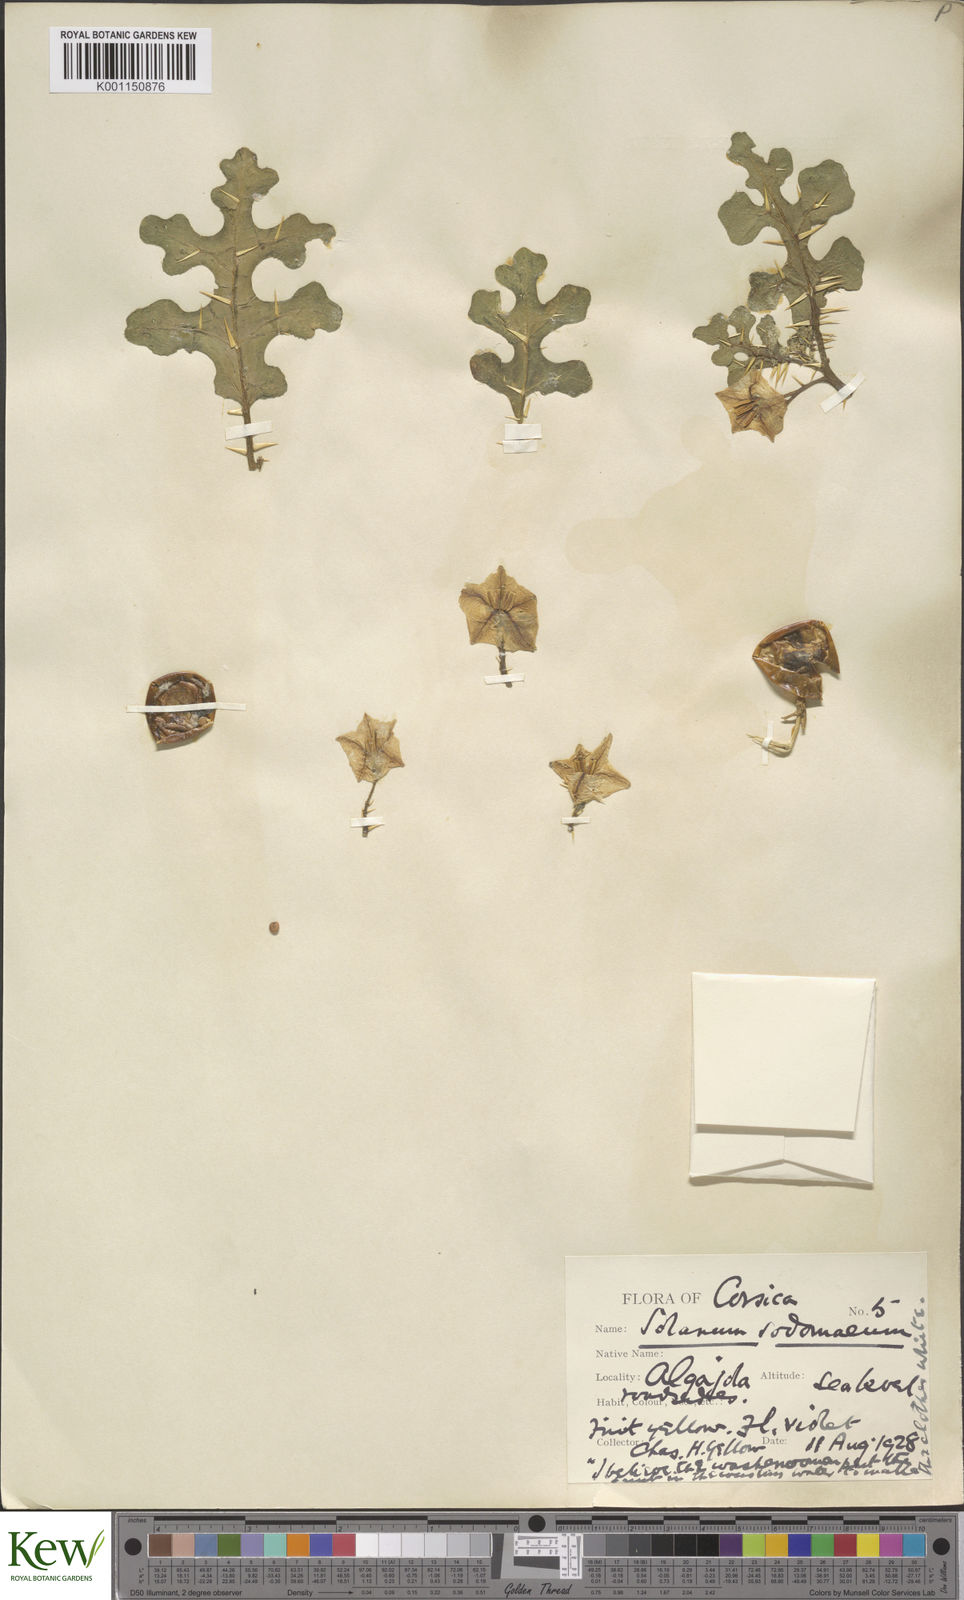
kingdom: Plantae
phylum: Tracheophyta
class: Magnoliopsida
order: Solanales
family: Solanaceae
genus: Solanum
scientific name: Solanum anguivi
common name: Forest bitterberry
